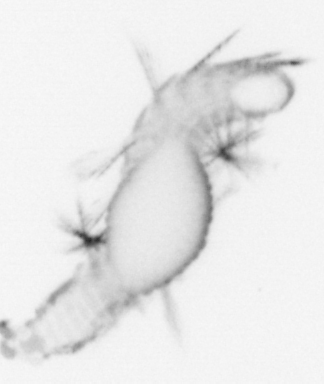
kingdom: Animalia
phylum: Annelida
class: Polychaeta
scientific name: Polychaeta
